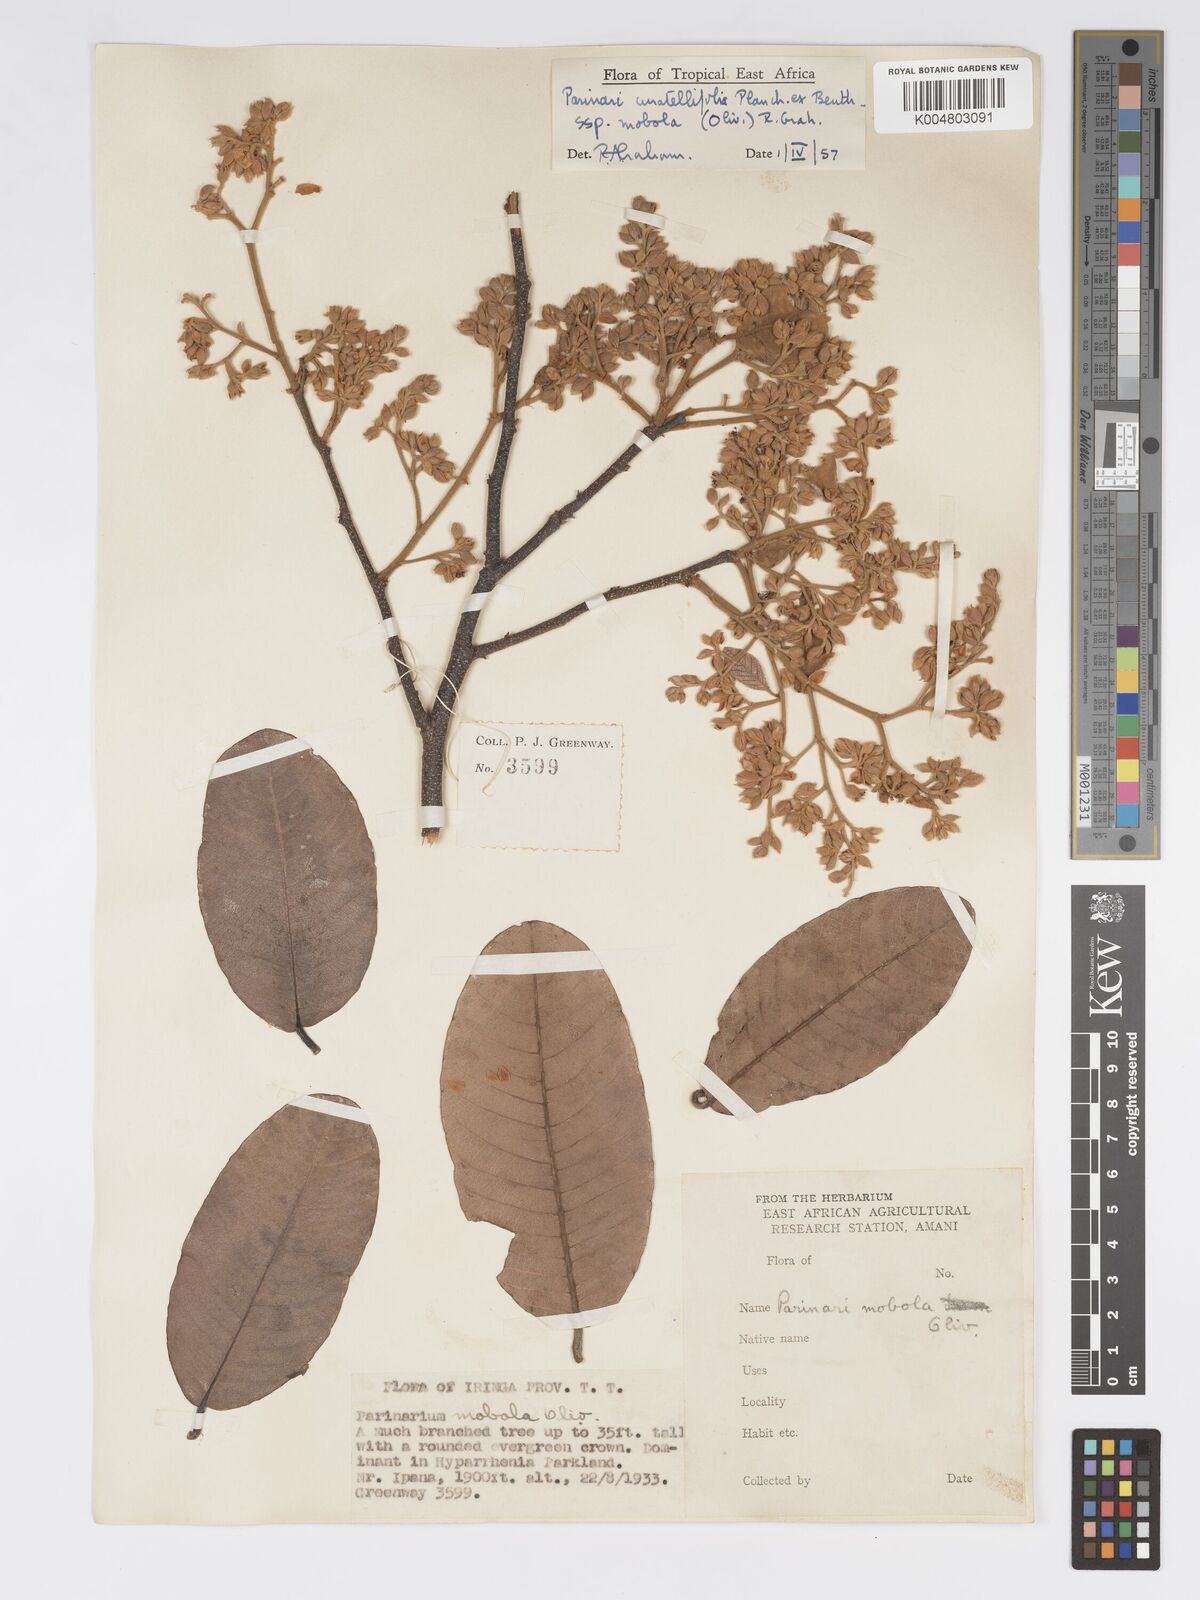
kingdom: Plantae
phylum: Tracheophyta
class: Magnoliopsida
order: Malpighiales
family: Chrysobalanaceae
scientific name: Chrysobalanaceae
